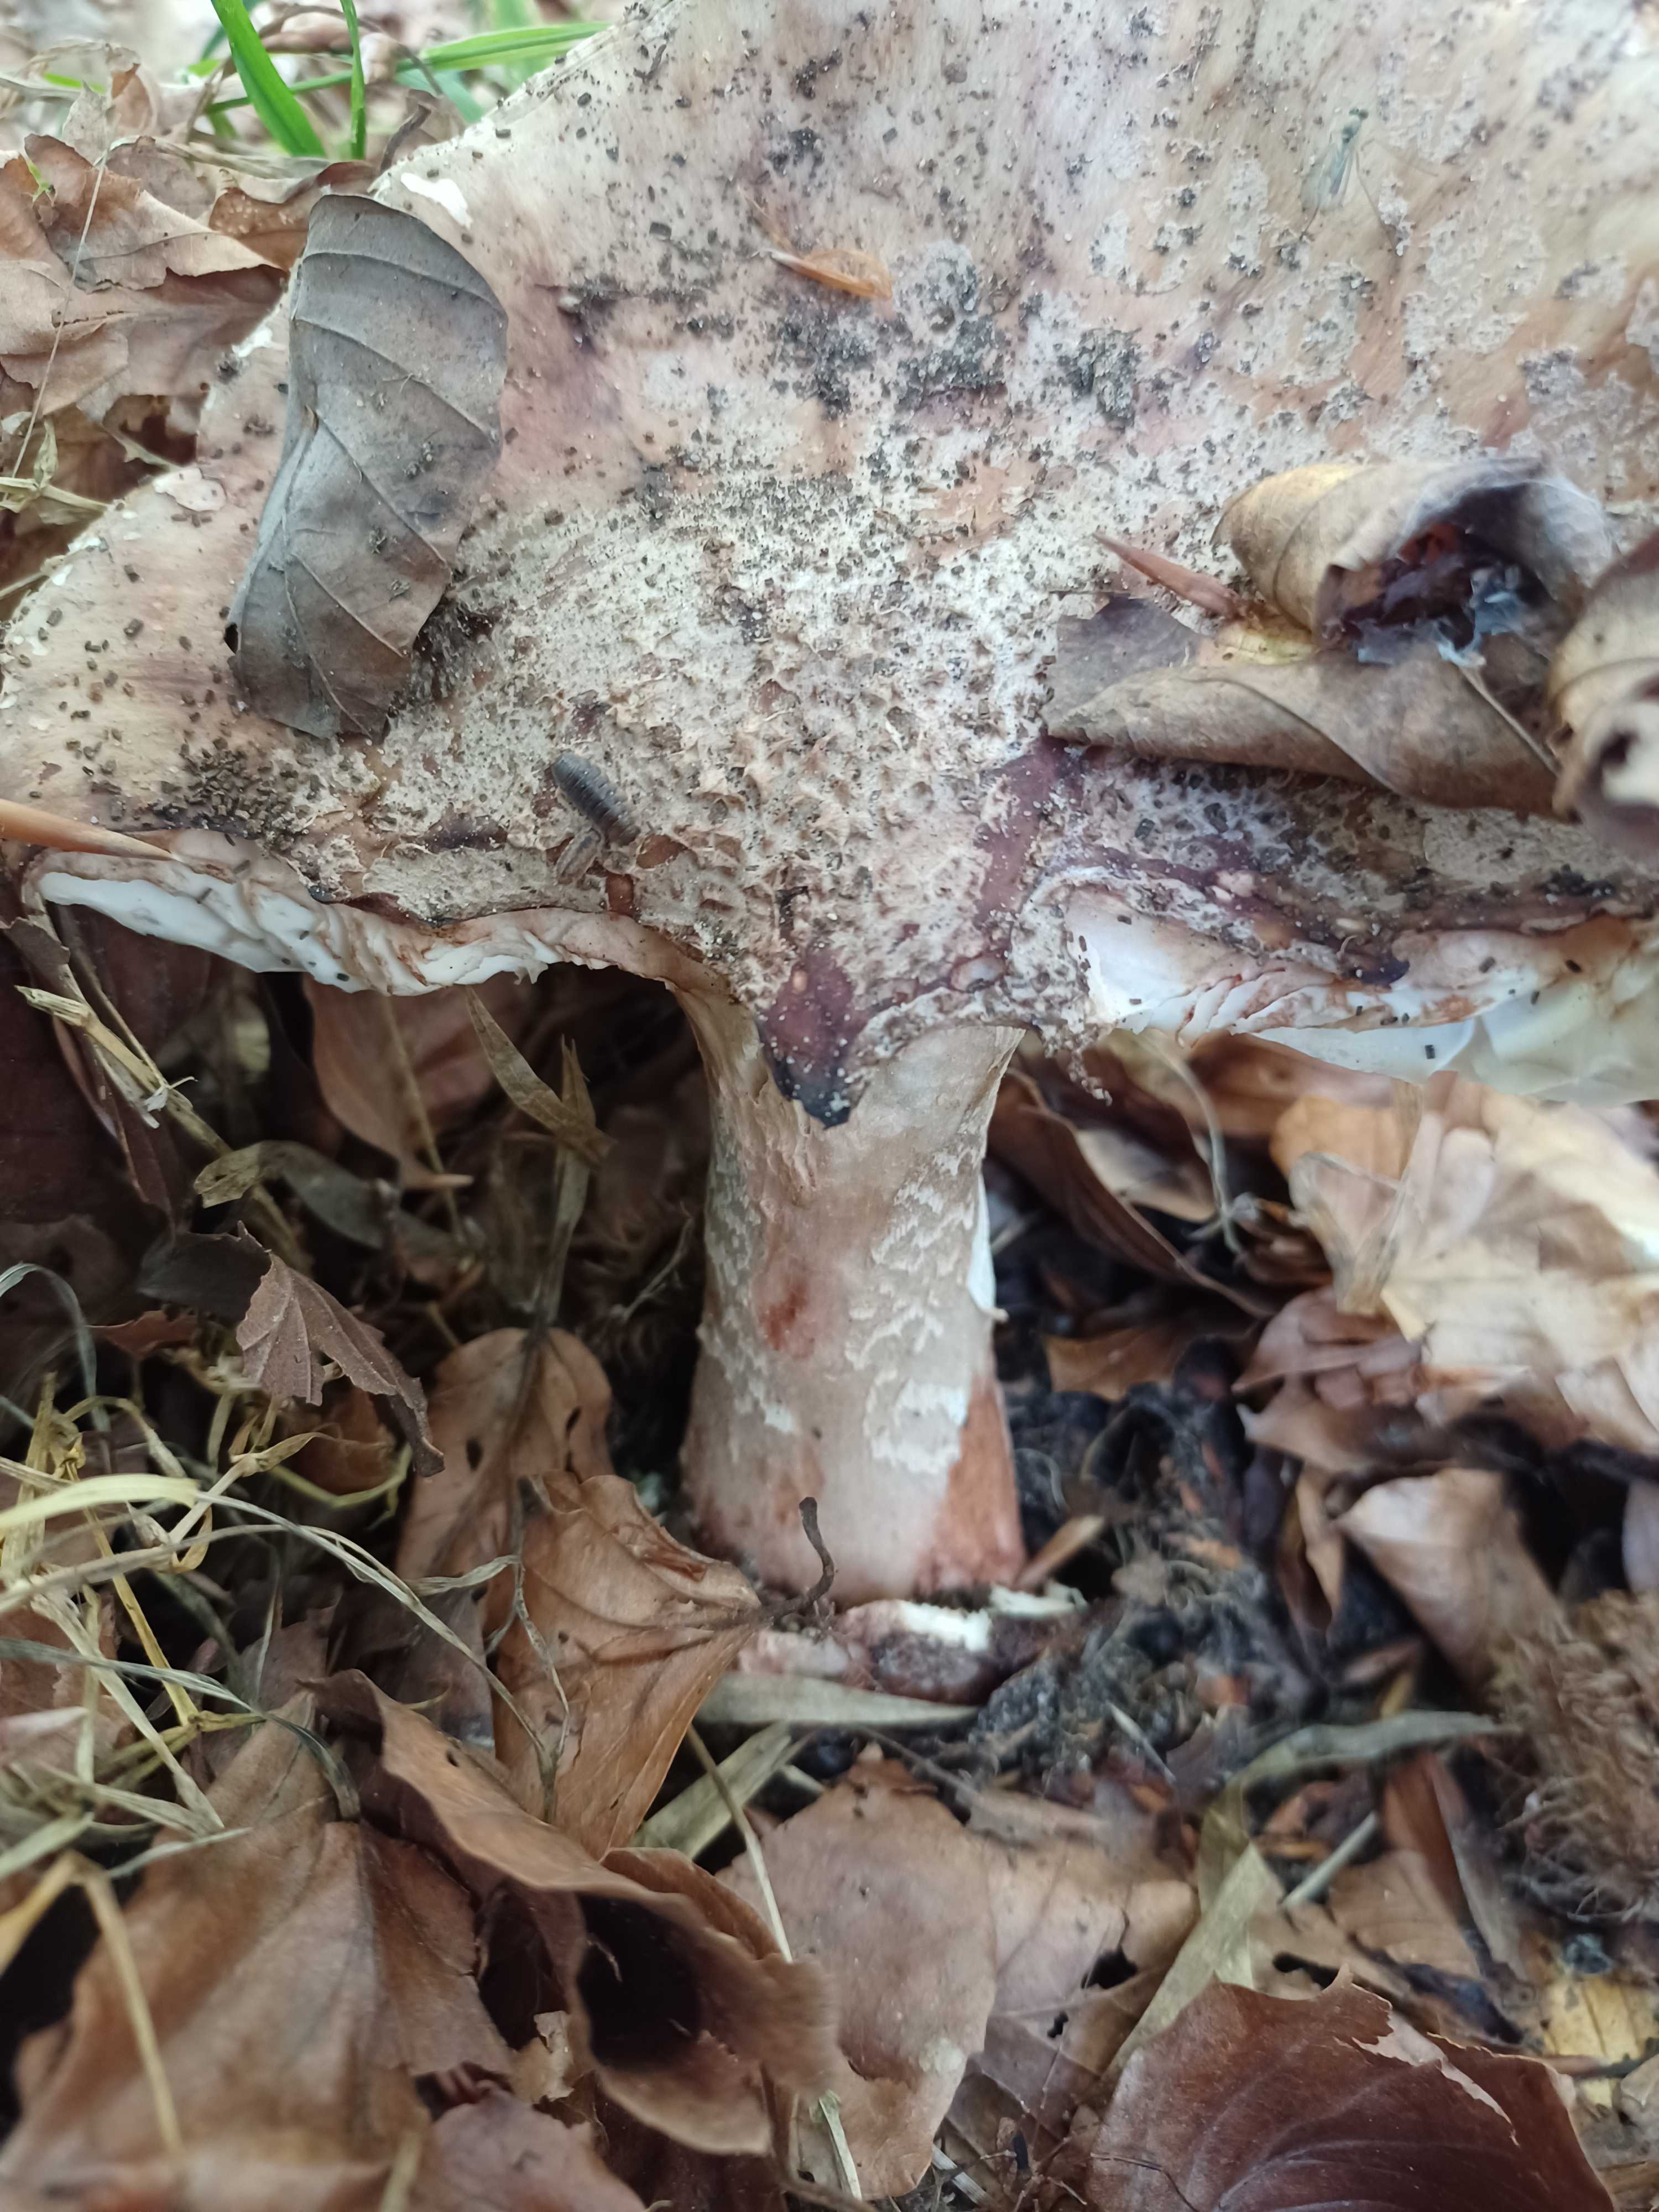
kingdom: Fungi
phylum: Basidiomycota
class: Agaricomycetes
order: Agaricales
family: Amanitaceae
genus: Amanita
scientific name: Amanita rubescens
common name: rødmende fluesvamp
